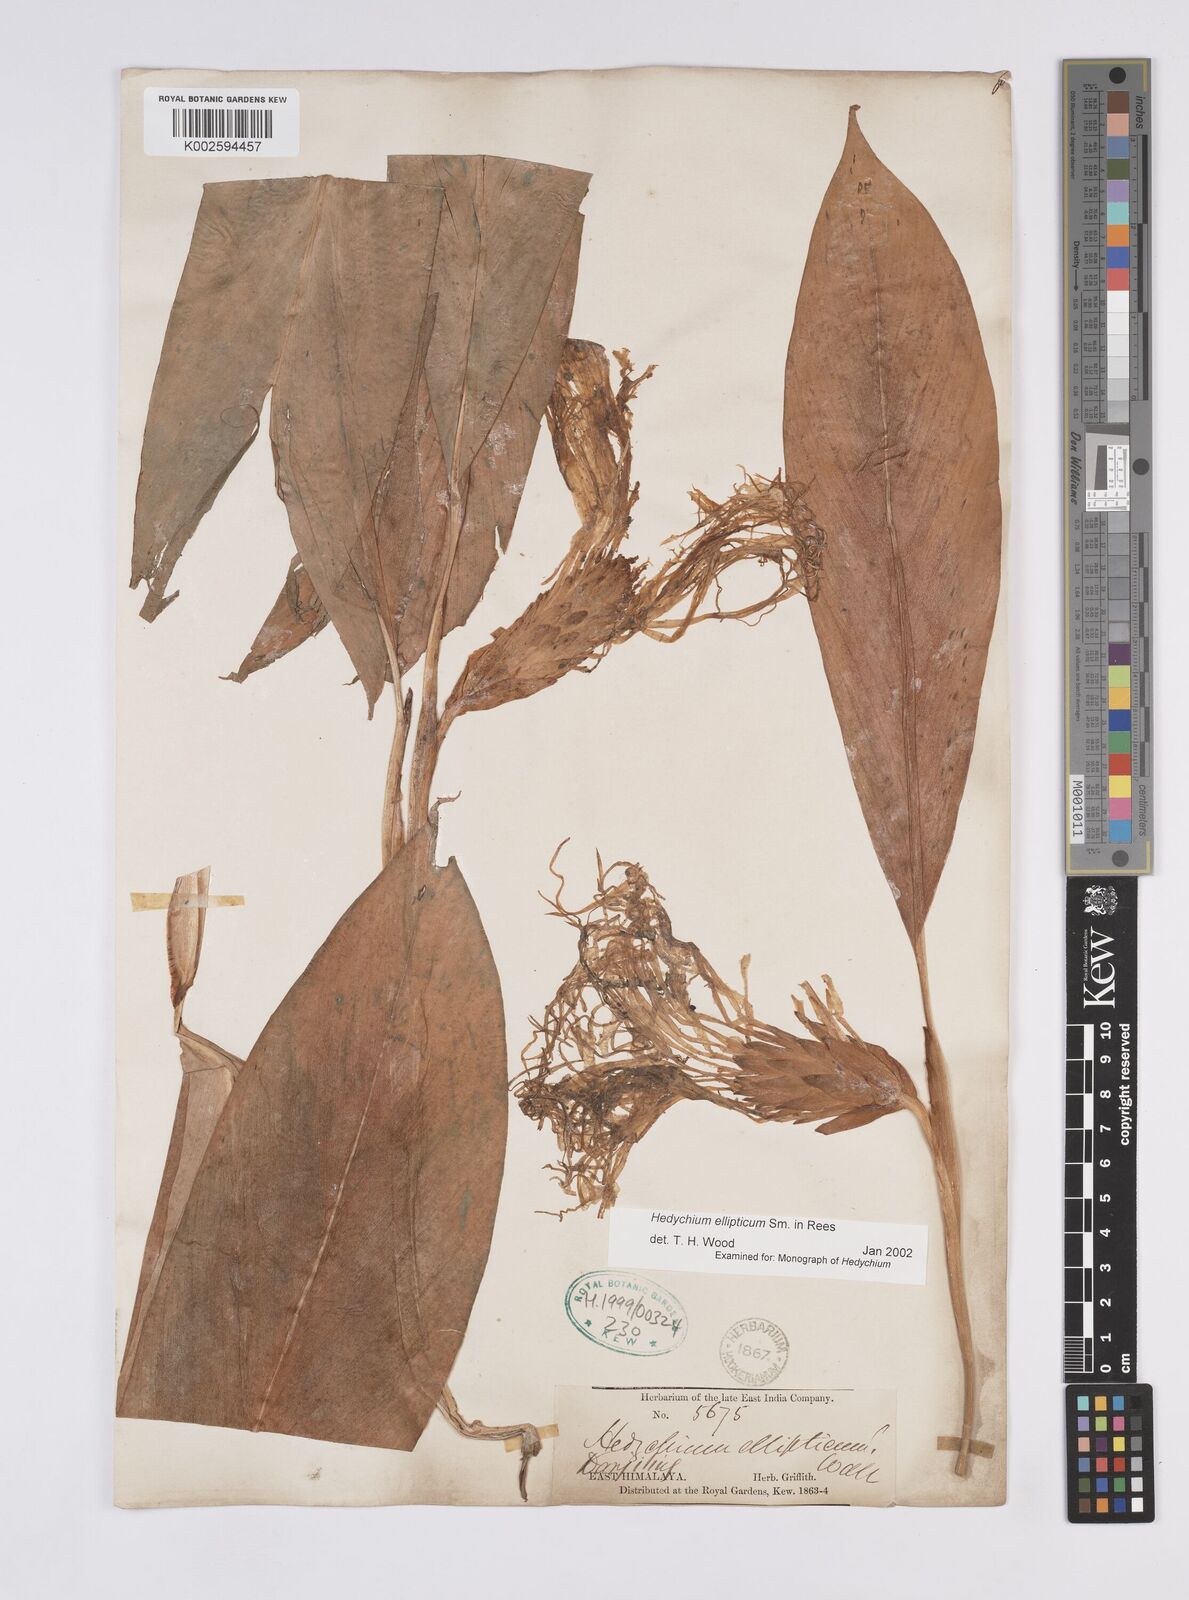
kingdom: Plantae
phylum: Tracheophyta
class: Liliopsida
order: Zingiberales
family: Zingiberaceae
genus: Hedychium
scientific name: Hedychium ellipticum
